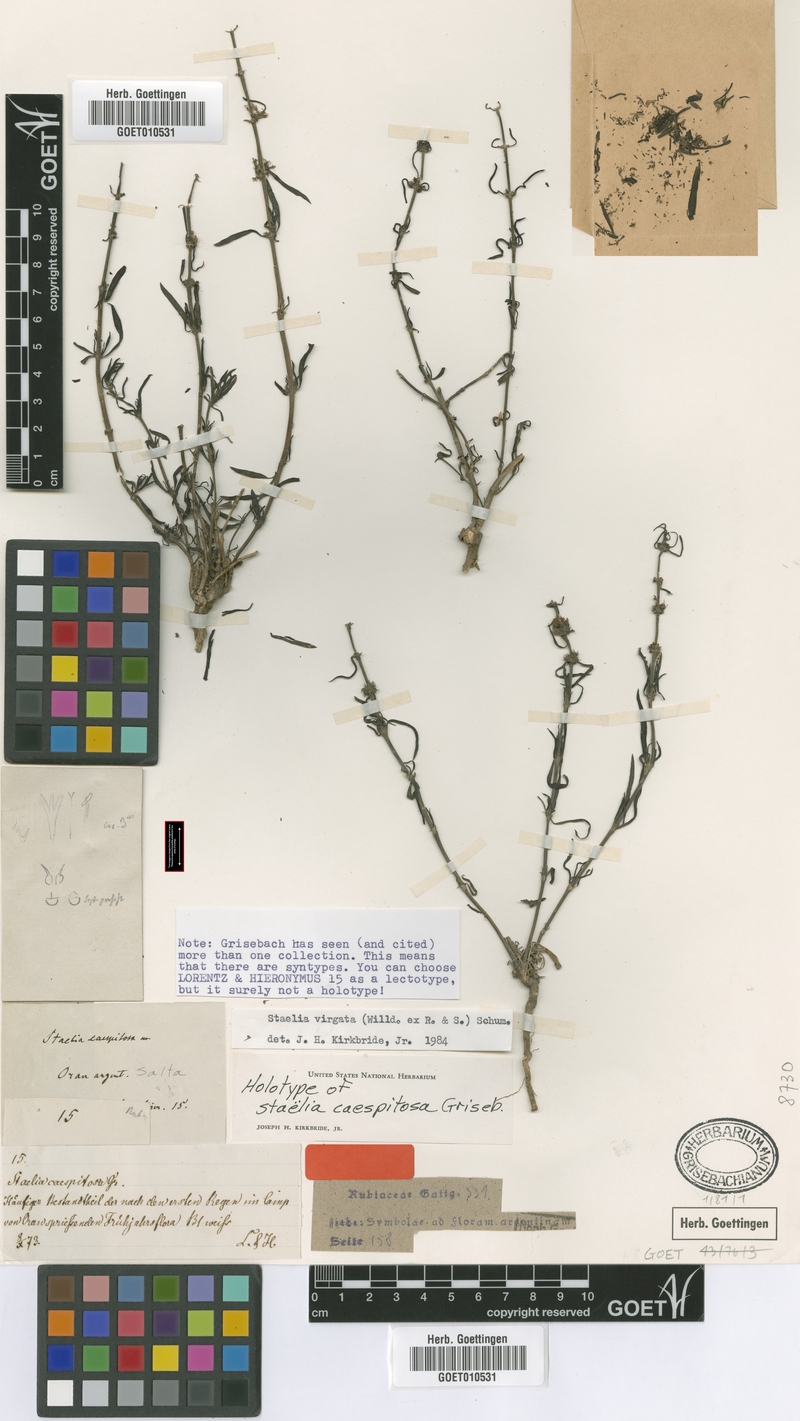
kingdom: Plantae
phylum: Tracheophyta
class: Magnoliopsida
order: Gentianales
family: Rubiaceae
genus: Staelia
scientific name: Staelia virgata
